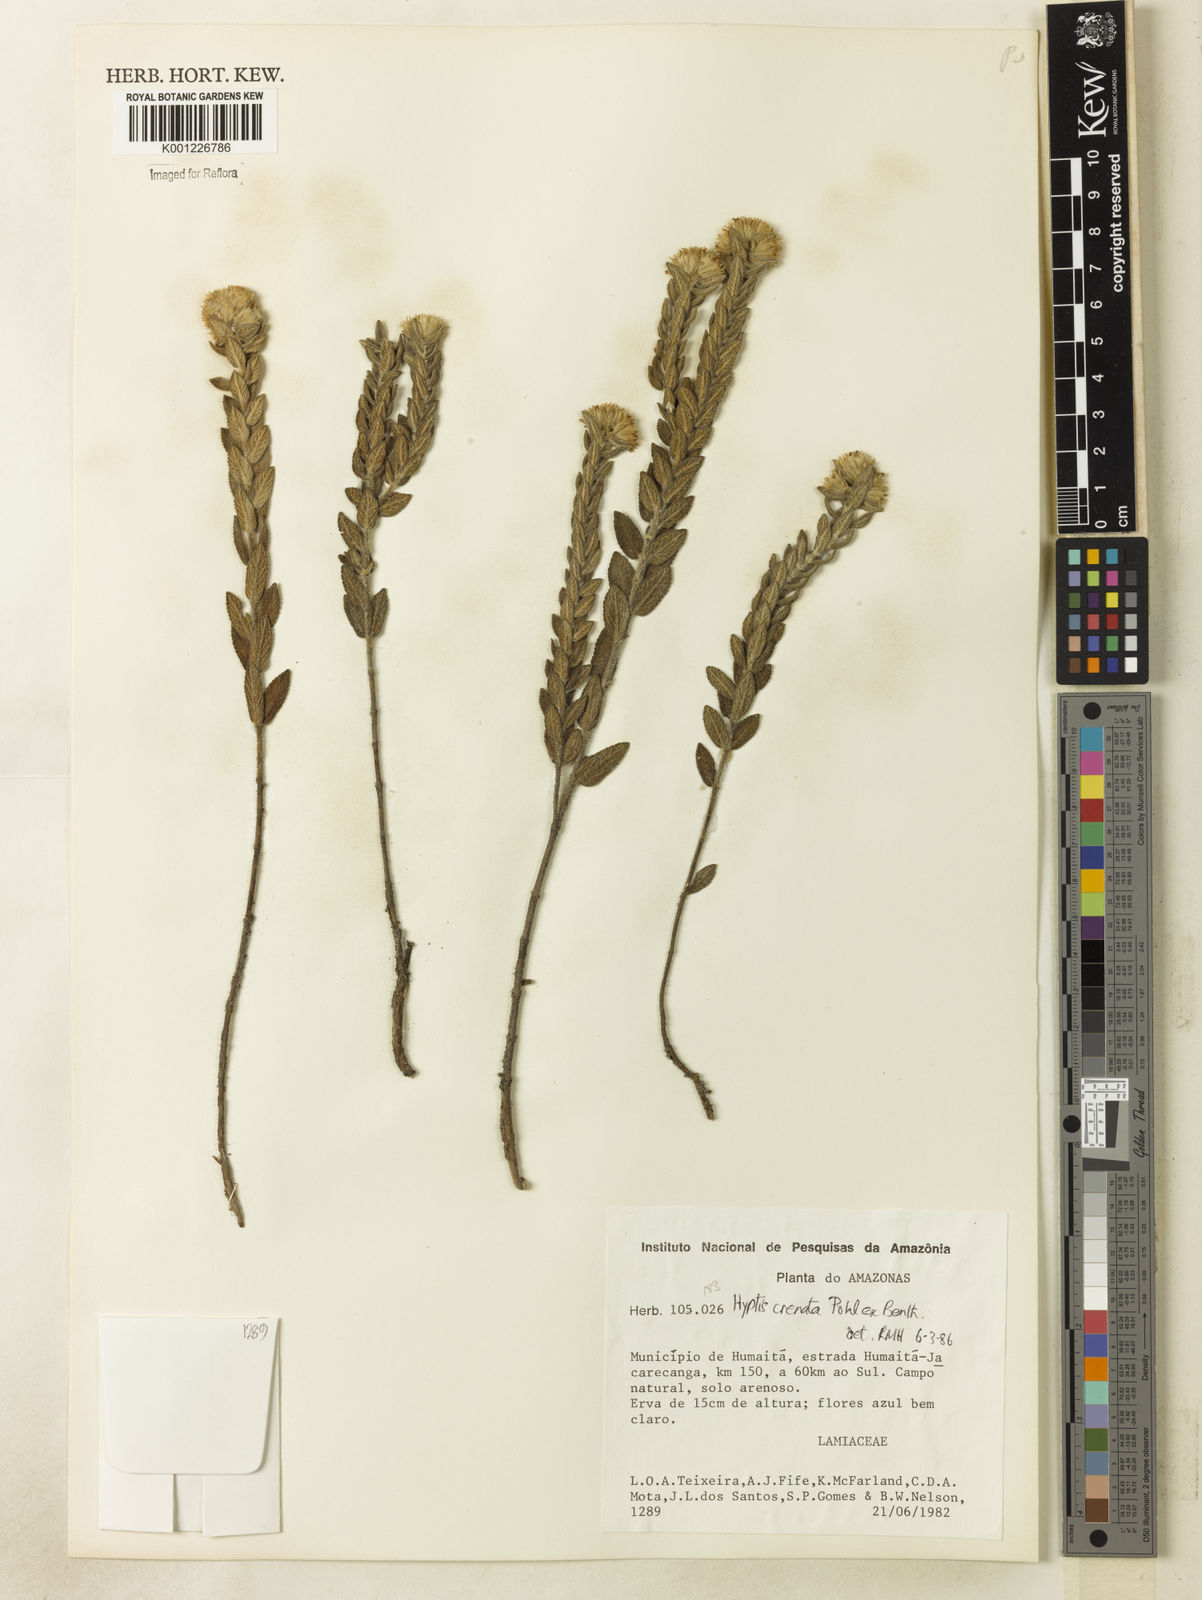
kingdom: Plantae
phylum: Tracheophyta
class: Magnoliopsida
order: Lamiales
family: Lamiaceae
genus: Hyptis
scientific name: Hyptis crenata
